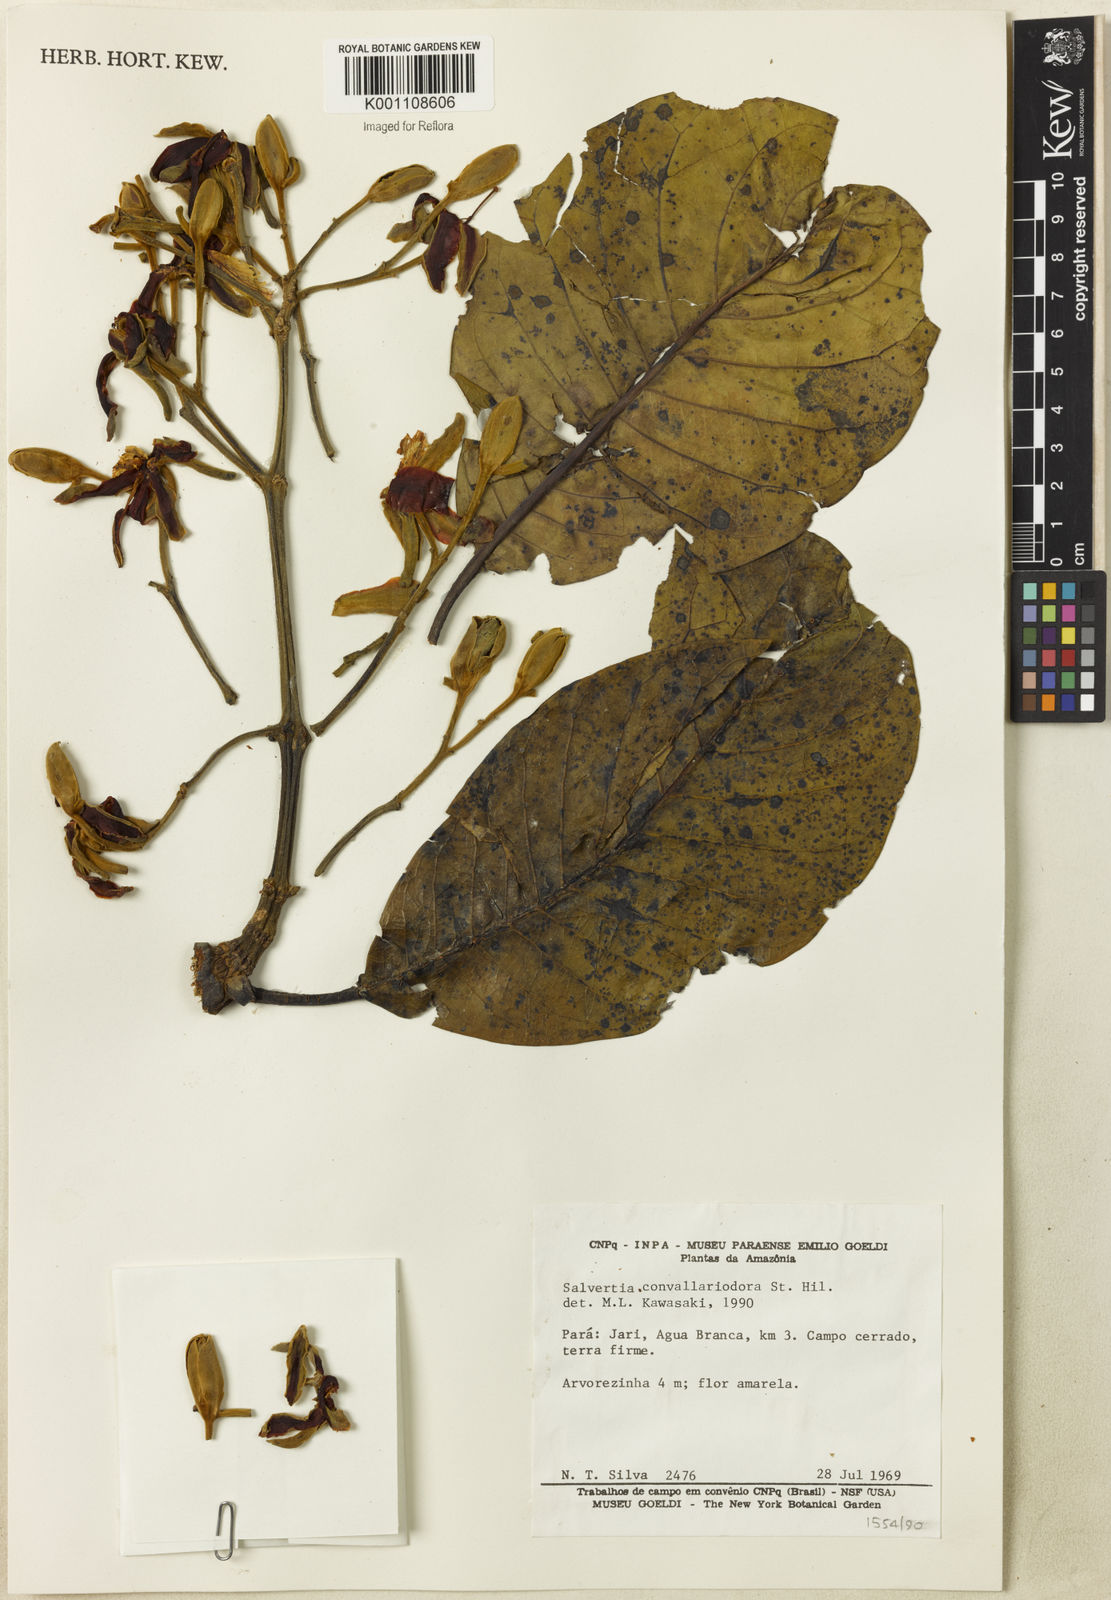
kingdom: Plantae
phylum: Tracheophyta
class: Magnoliopsida
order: Myrtales
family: Vochysiaceae
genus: Salvertia
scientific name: Salvertia convallariodora
